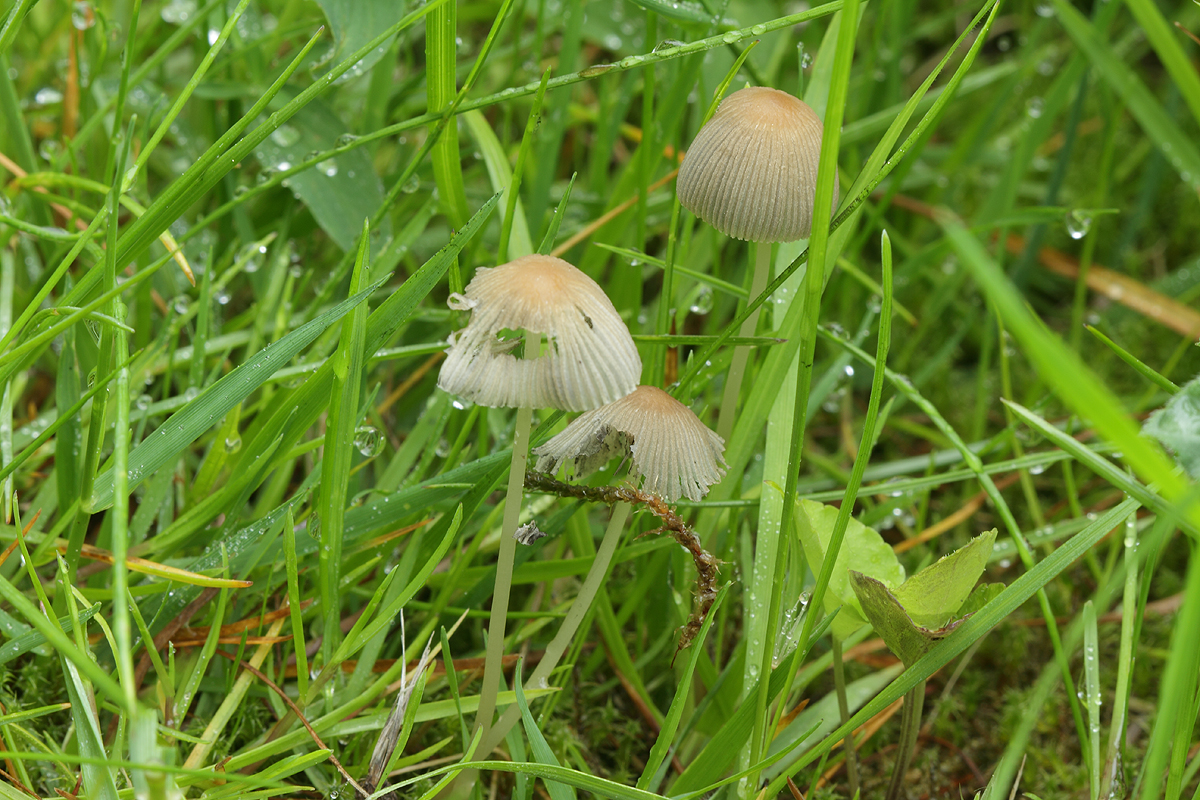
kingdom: Fungi
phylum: Basidiomycota
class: Agaricomycetes
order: Agaricales
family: Psathyrellaceae
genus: Parasola
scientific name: Parasola lactea
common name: glat hjulhat
